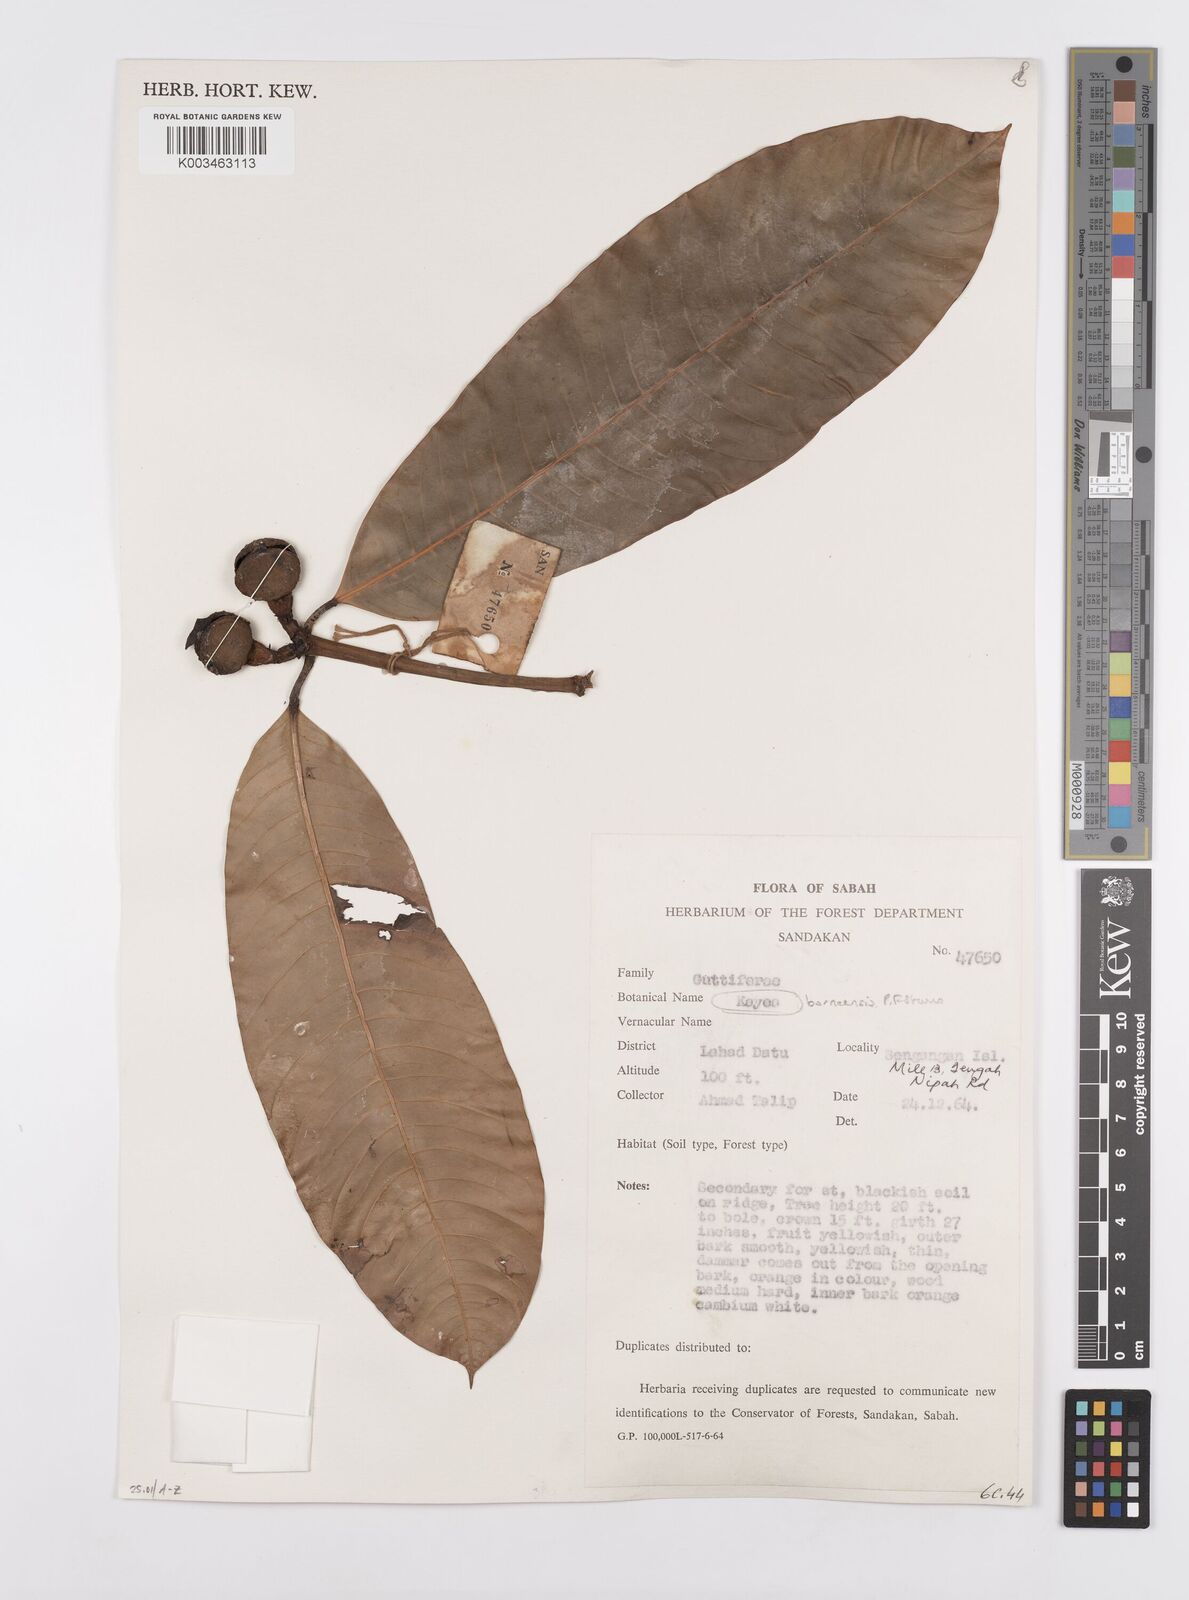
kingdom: Plantae
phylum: Tracheophyta
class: Magnoliopsida
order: Malpighiales
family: Calophyllaceae
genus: Kayea
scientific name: Kayea borneensis
